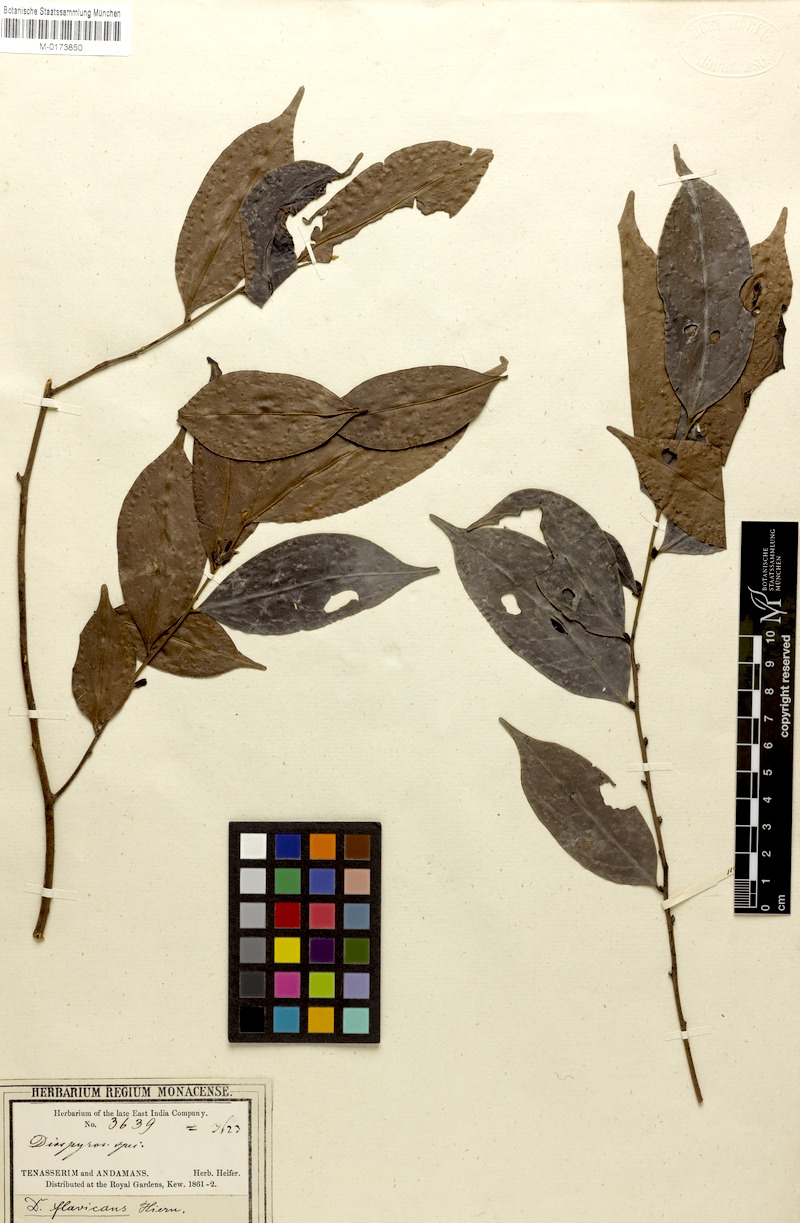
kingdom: Plantae
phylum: Tracheophyta
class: Magnoliopsida
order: Ericales
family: Ebenaceae
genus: Diospyros
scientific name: Diospyros sumatrana
